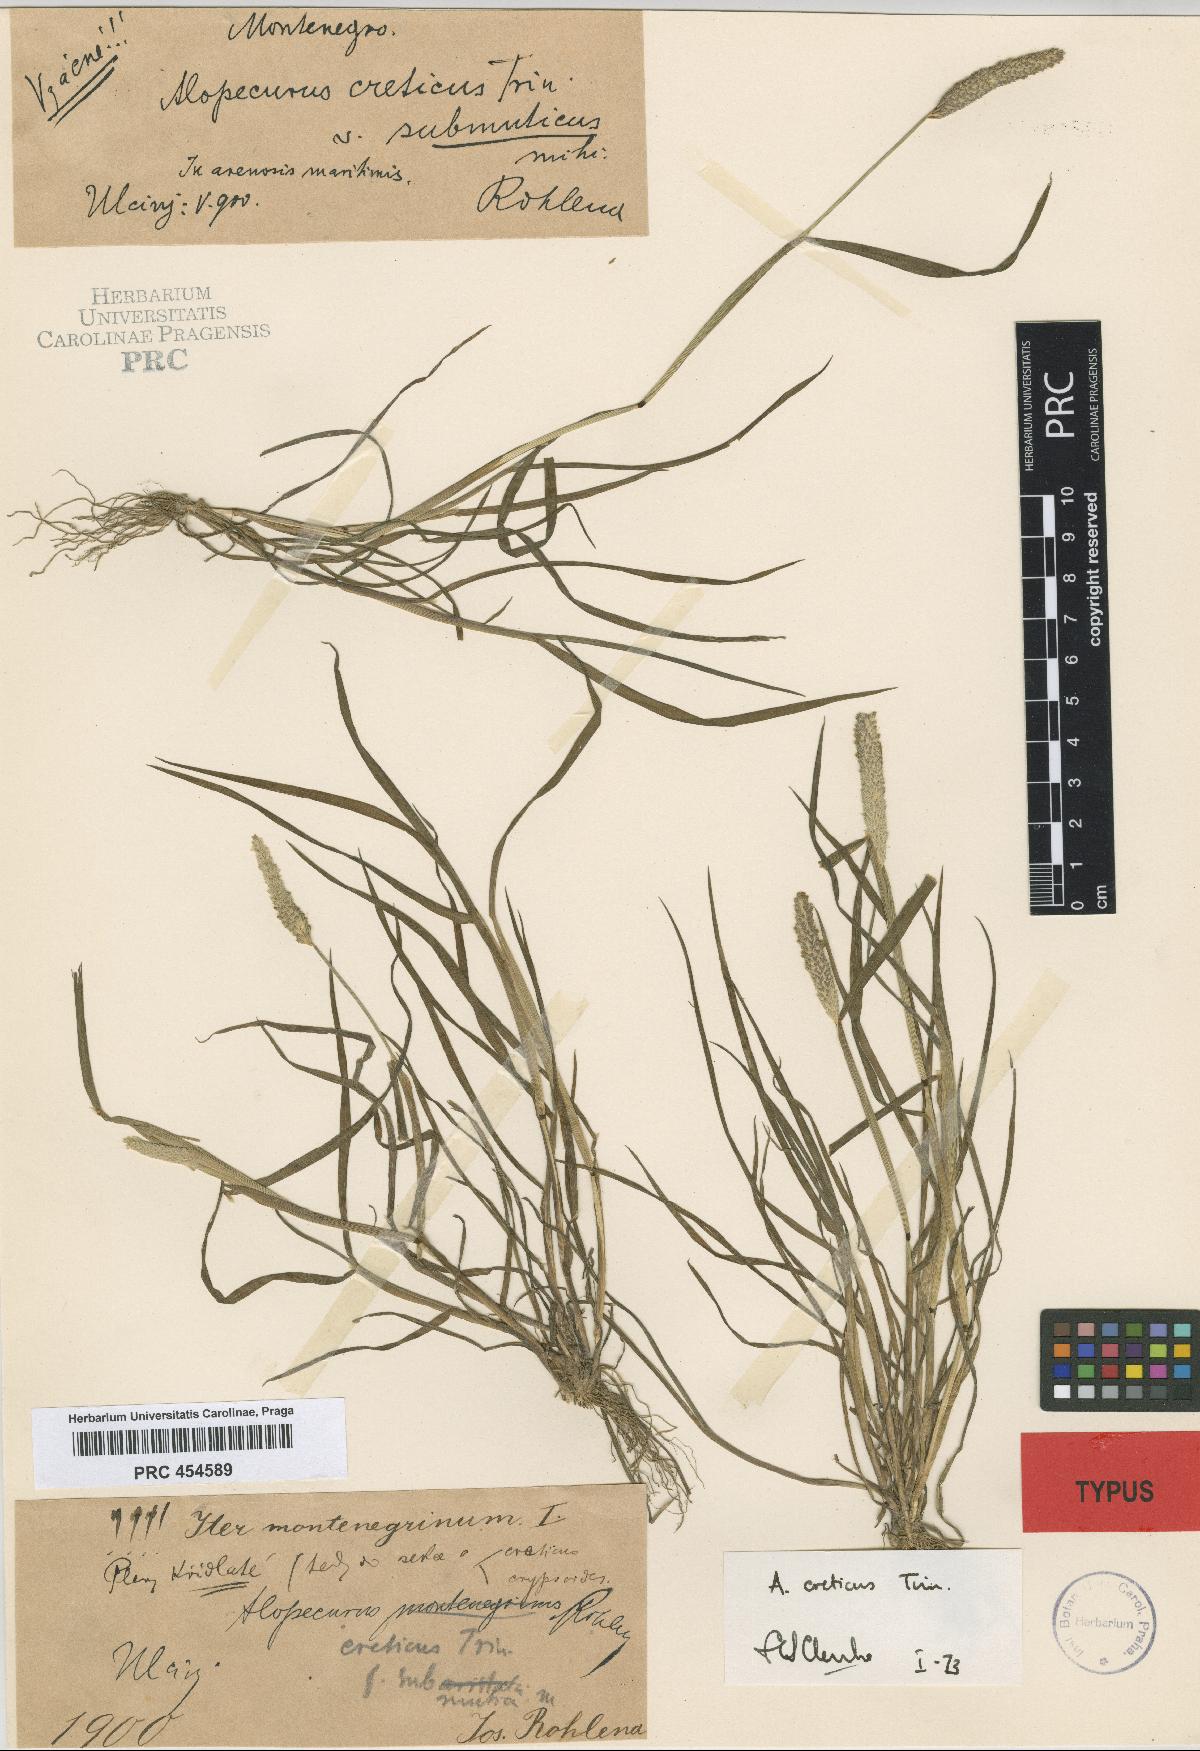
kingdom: Plantae
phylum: Tracheophyta
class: Liliopsida
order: Poales
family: Poaceae
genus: Alopecurus
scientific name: Alopecurus myosuroides
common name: Black-grass
